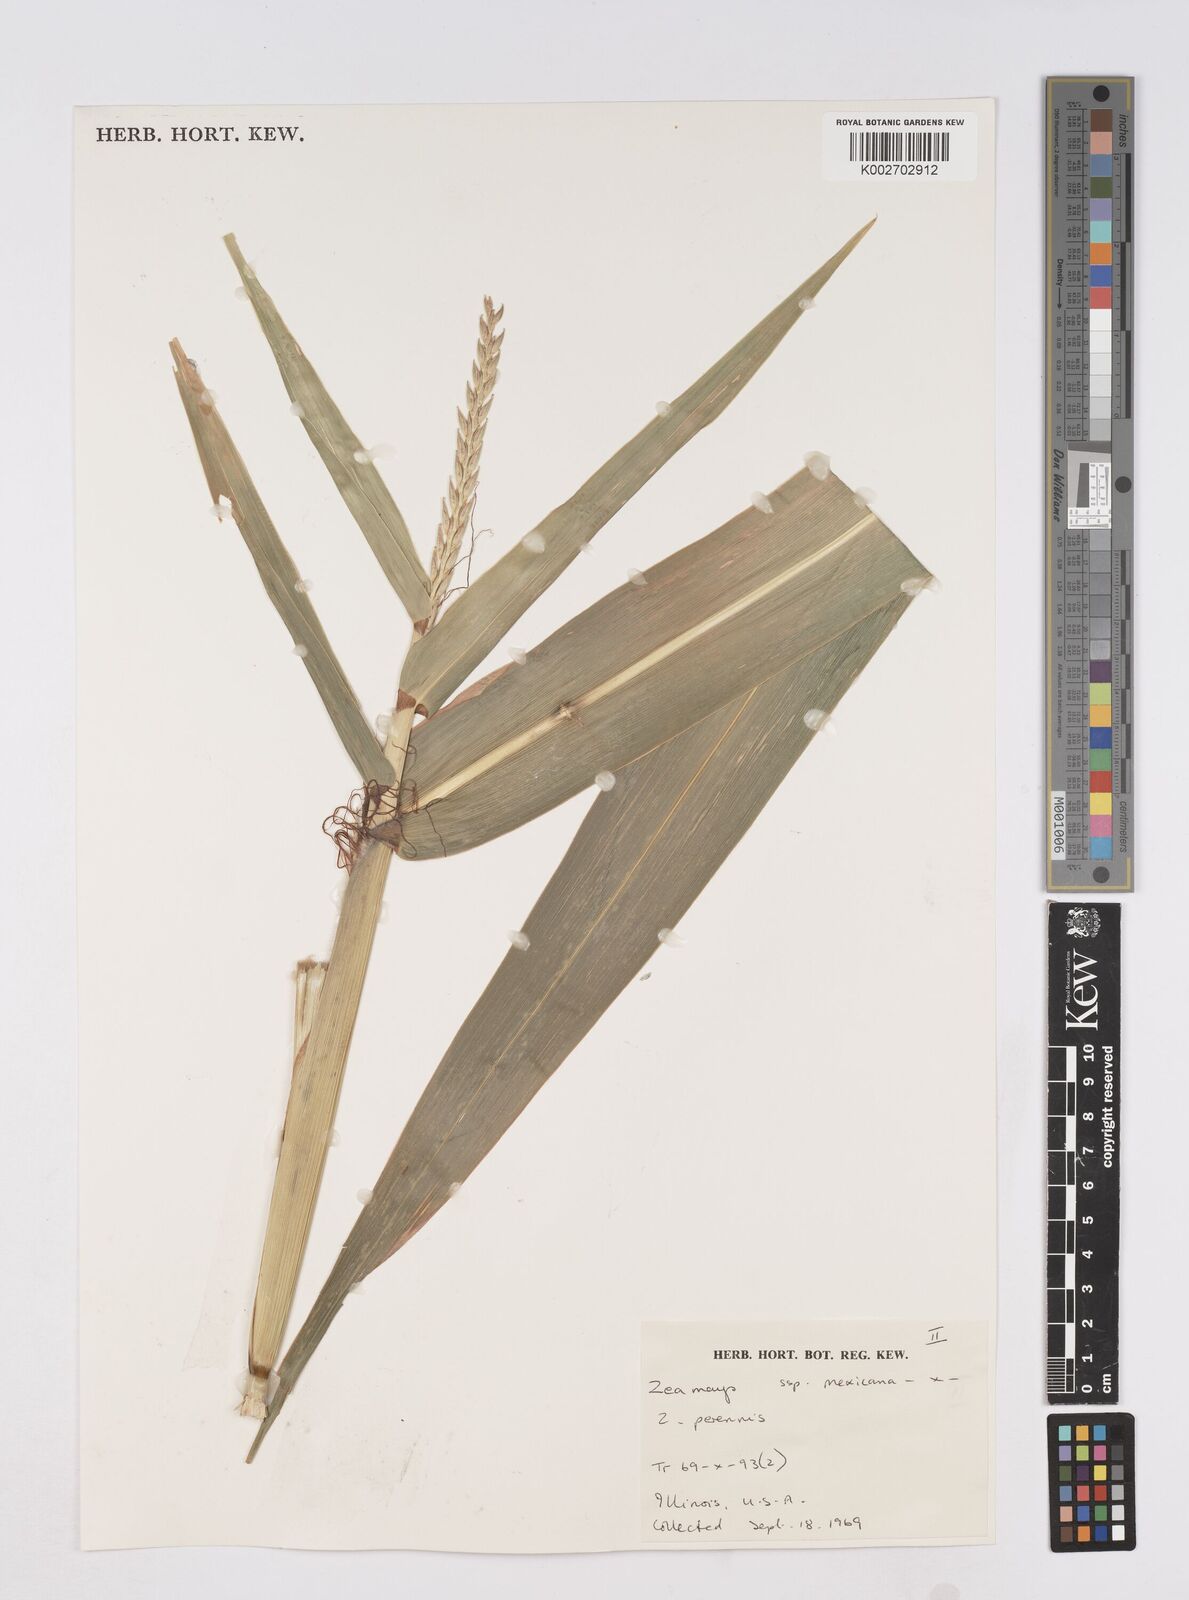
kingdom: Plantae
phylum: Tracheophyta
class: Liliopsida
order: Poales
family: Poaceae
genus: Zea
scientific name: Zea mexicana
